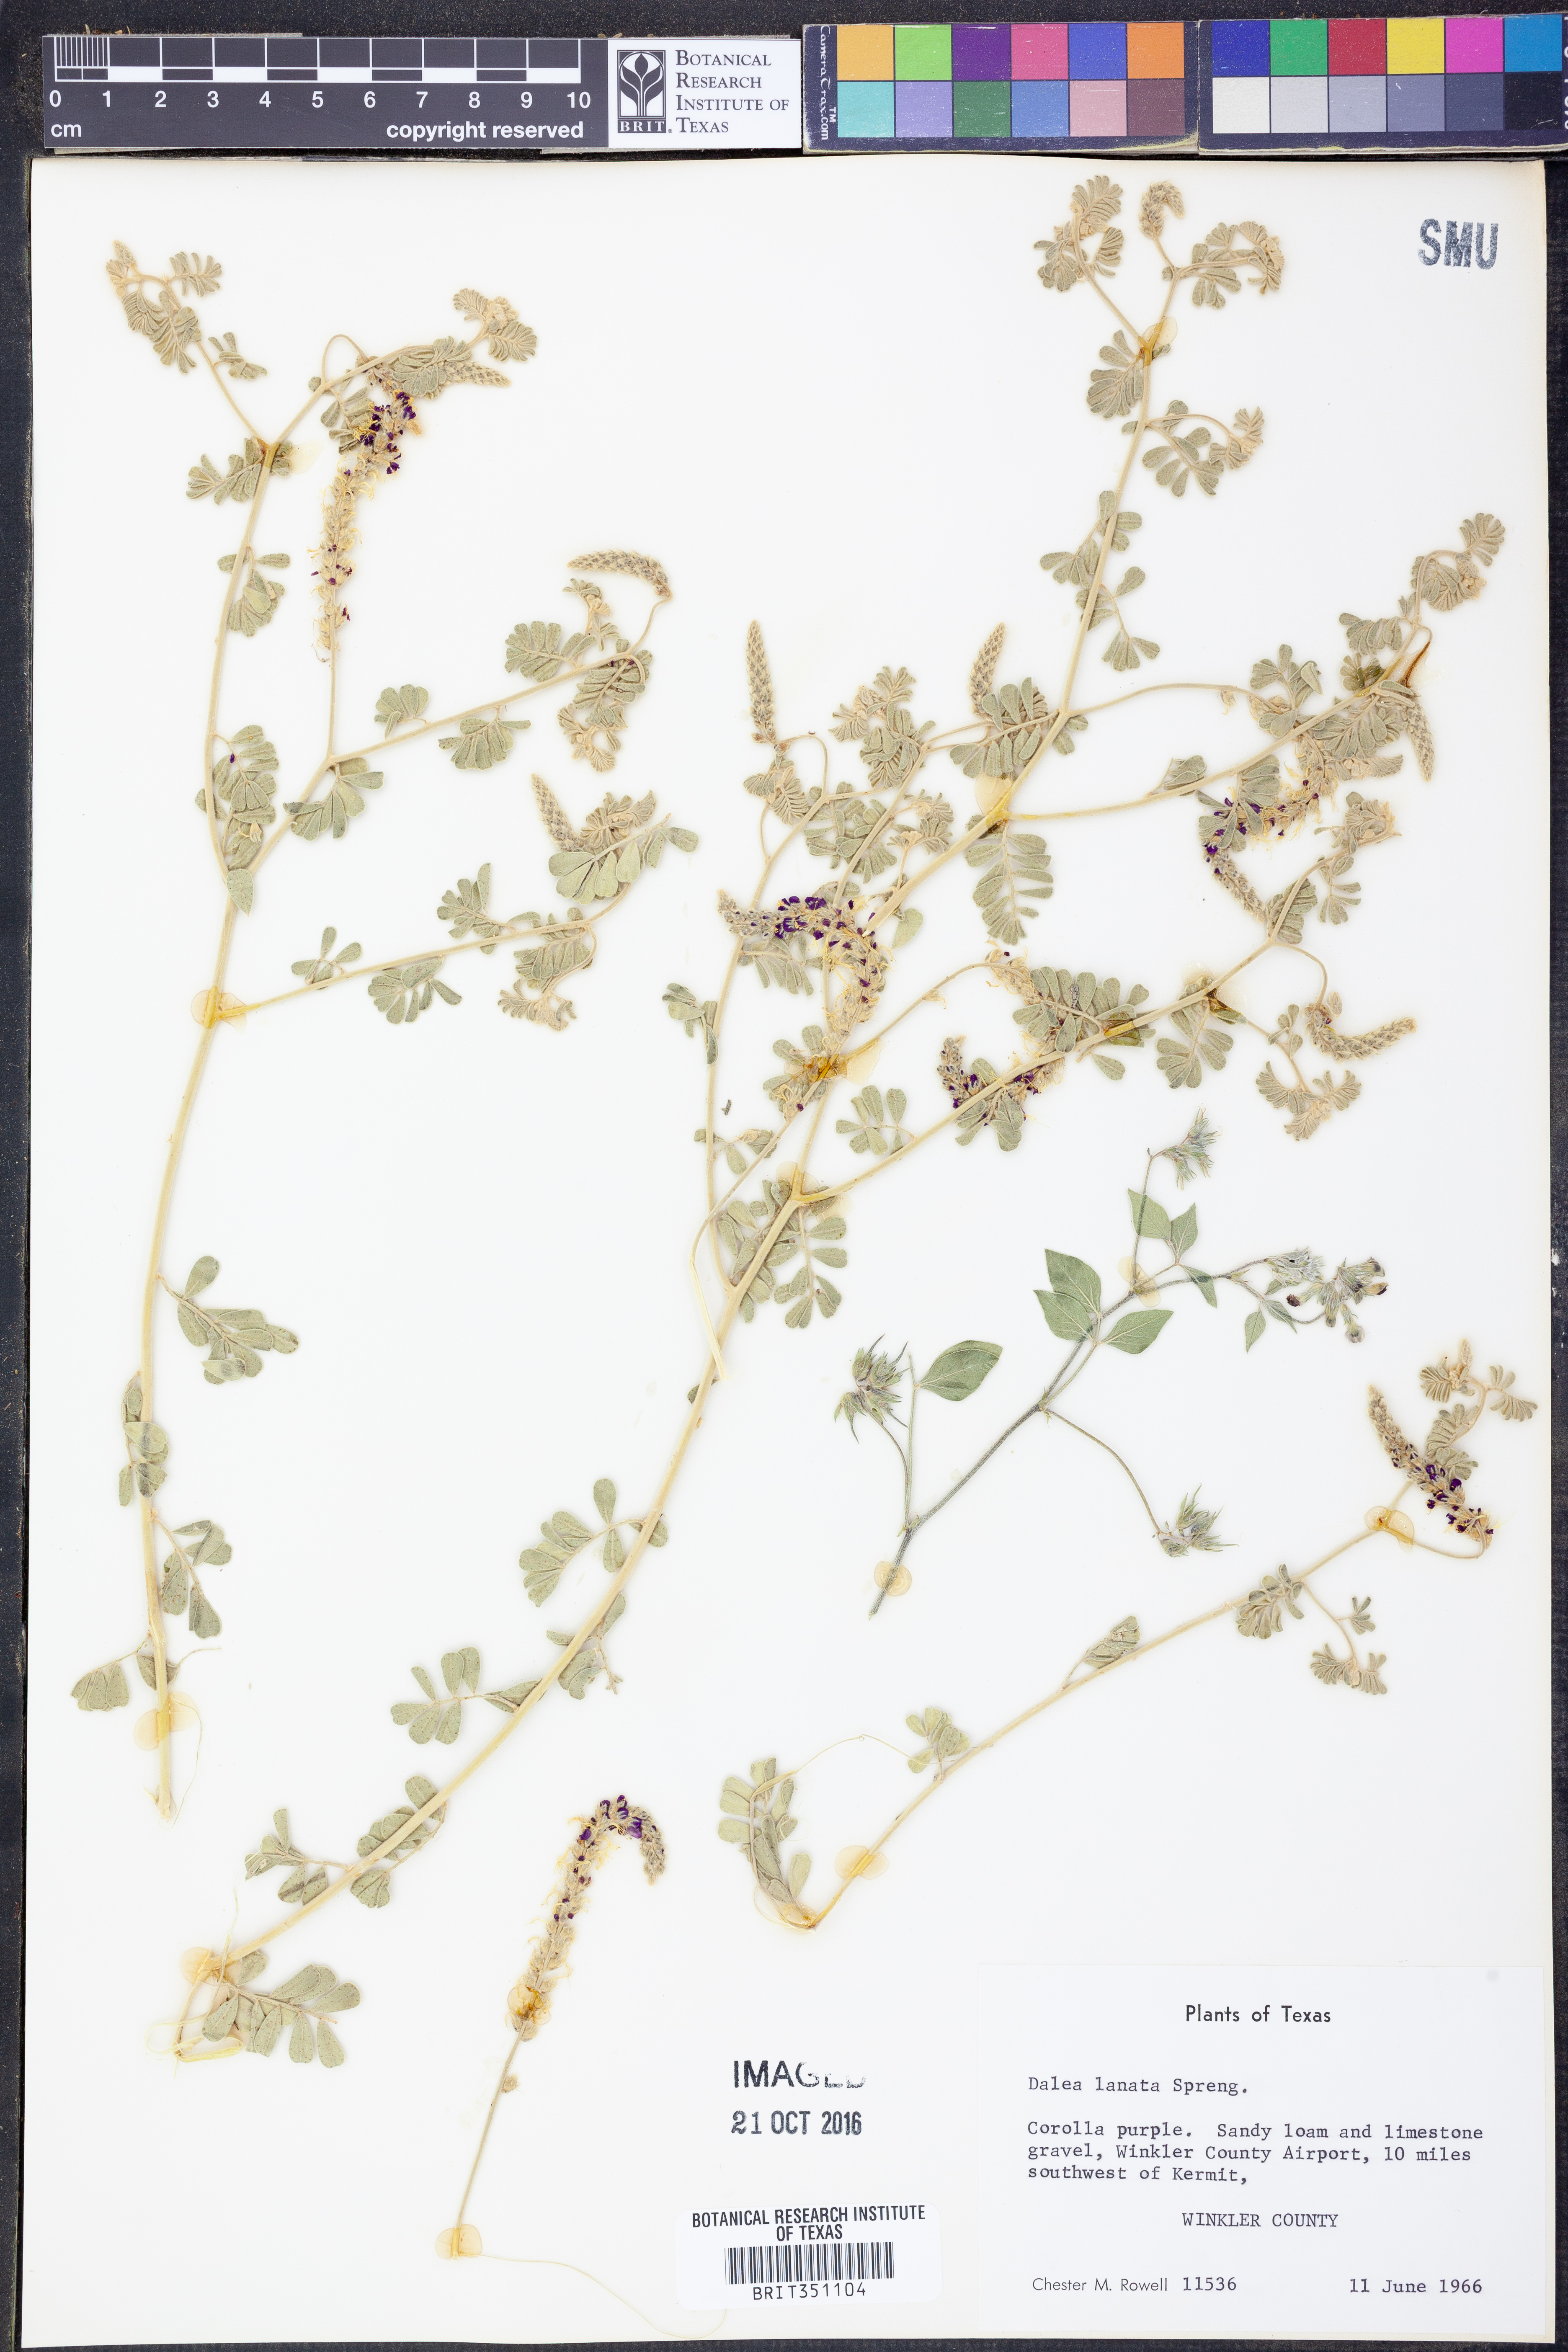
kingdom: Plantae
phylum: Tracheophyta
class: Magnoliopsida
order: Fabales
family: Fabaceae
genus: Dalea
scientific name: Dalea lanata
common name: Woolly dalea
